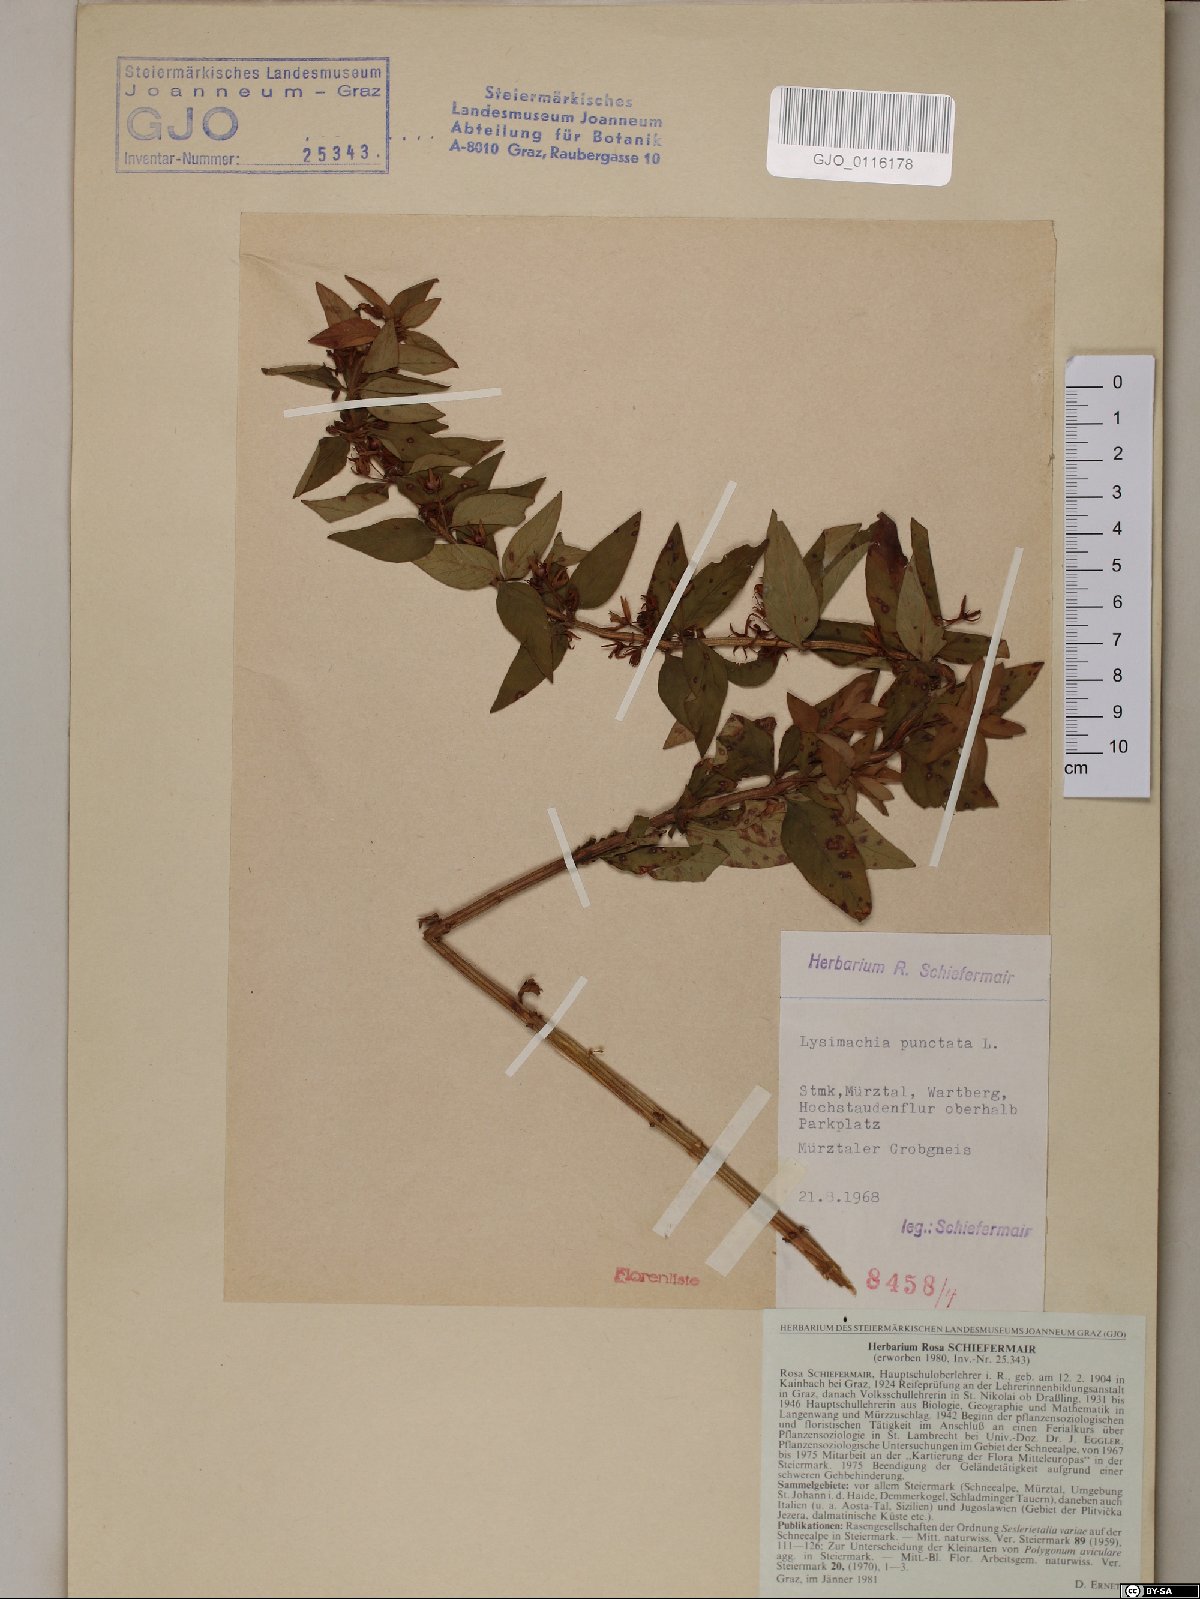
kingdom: Plantae
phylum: Tracheophyta
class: Magnoliopsida
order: Ericales
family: Primulaceae
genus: Lysimachia
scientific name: Lysimachia punctata
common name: Dotted loosestrife
